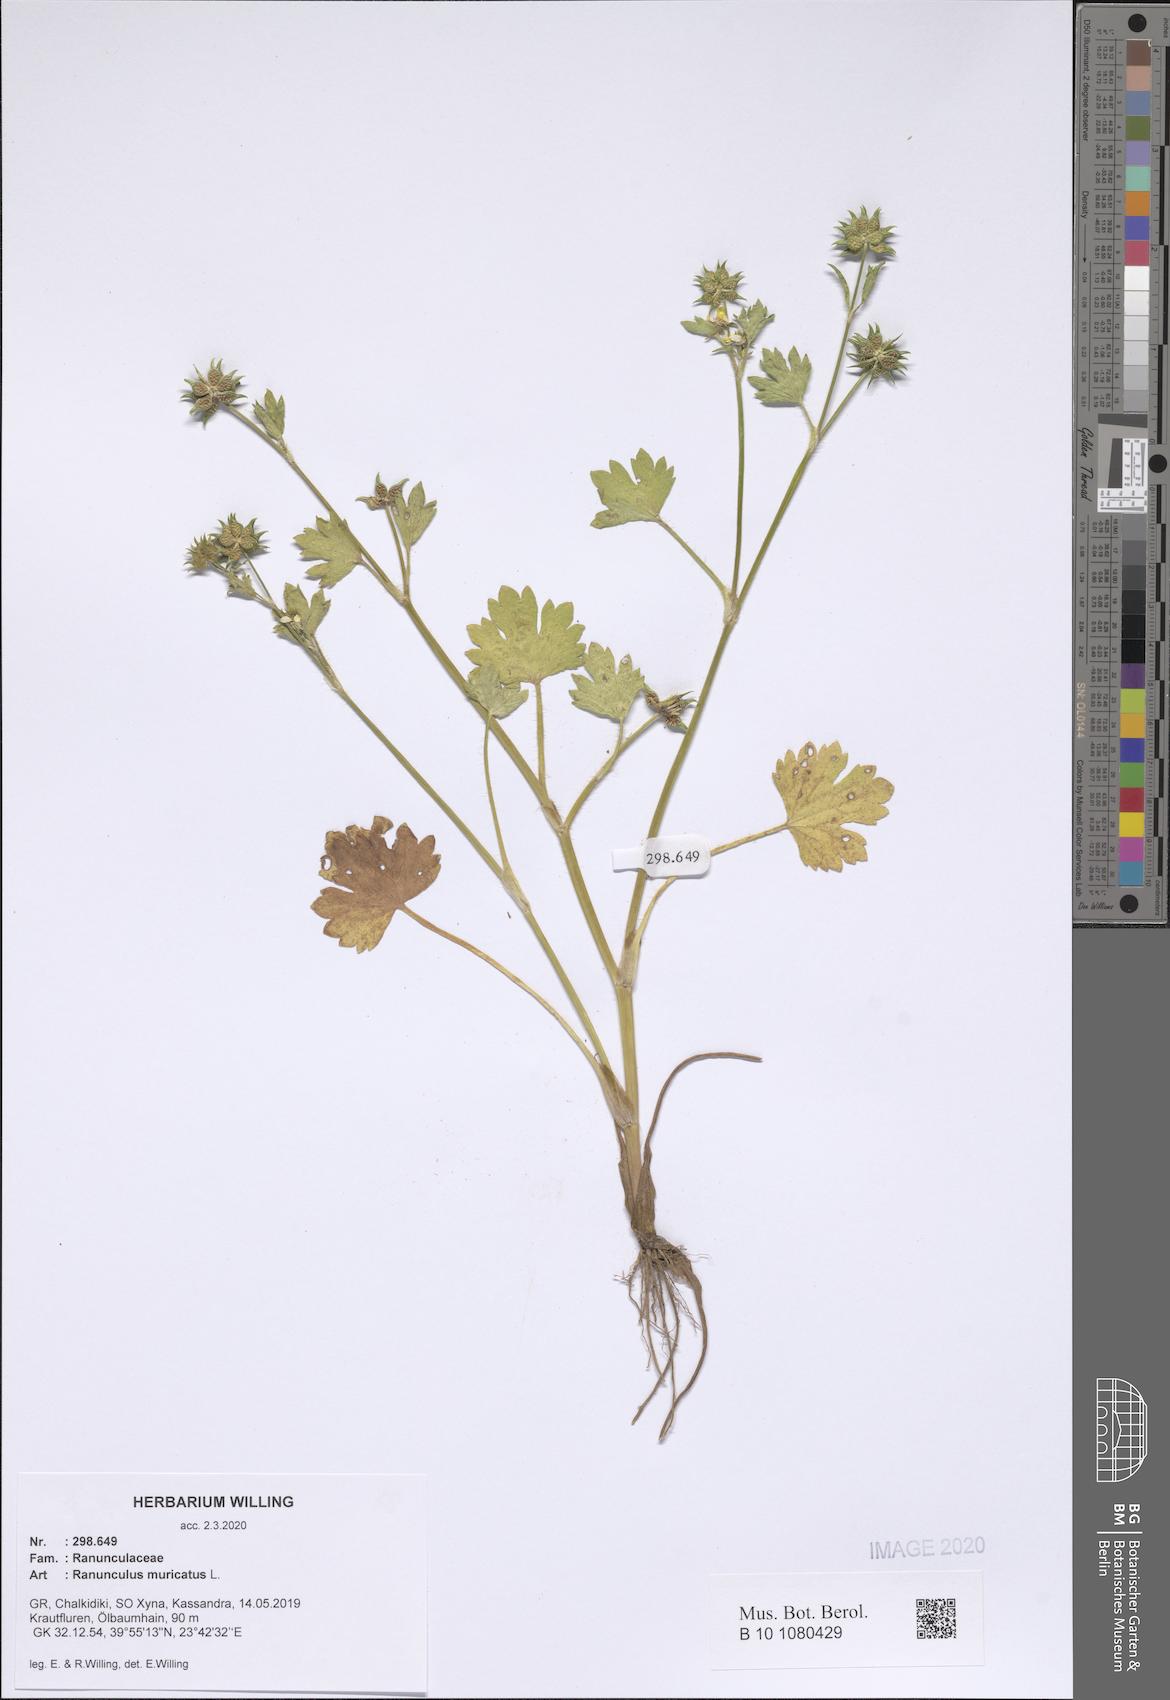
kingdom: Plantae
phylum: Tracheophyta
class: Magnoliopsida
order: Ranunculales
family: Ranunculaceae
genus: Ranunculus
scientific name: Ranunculus muricatus
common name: Rough-fruited buttercup
